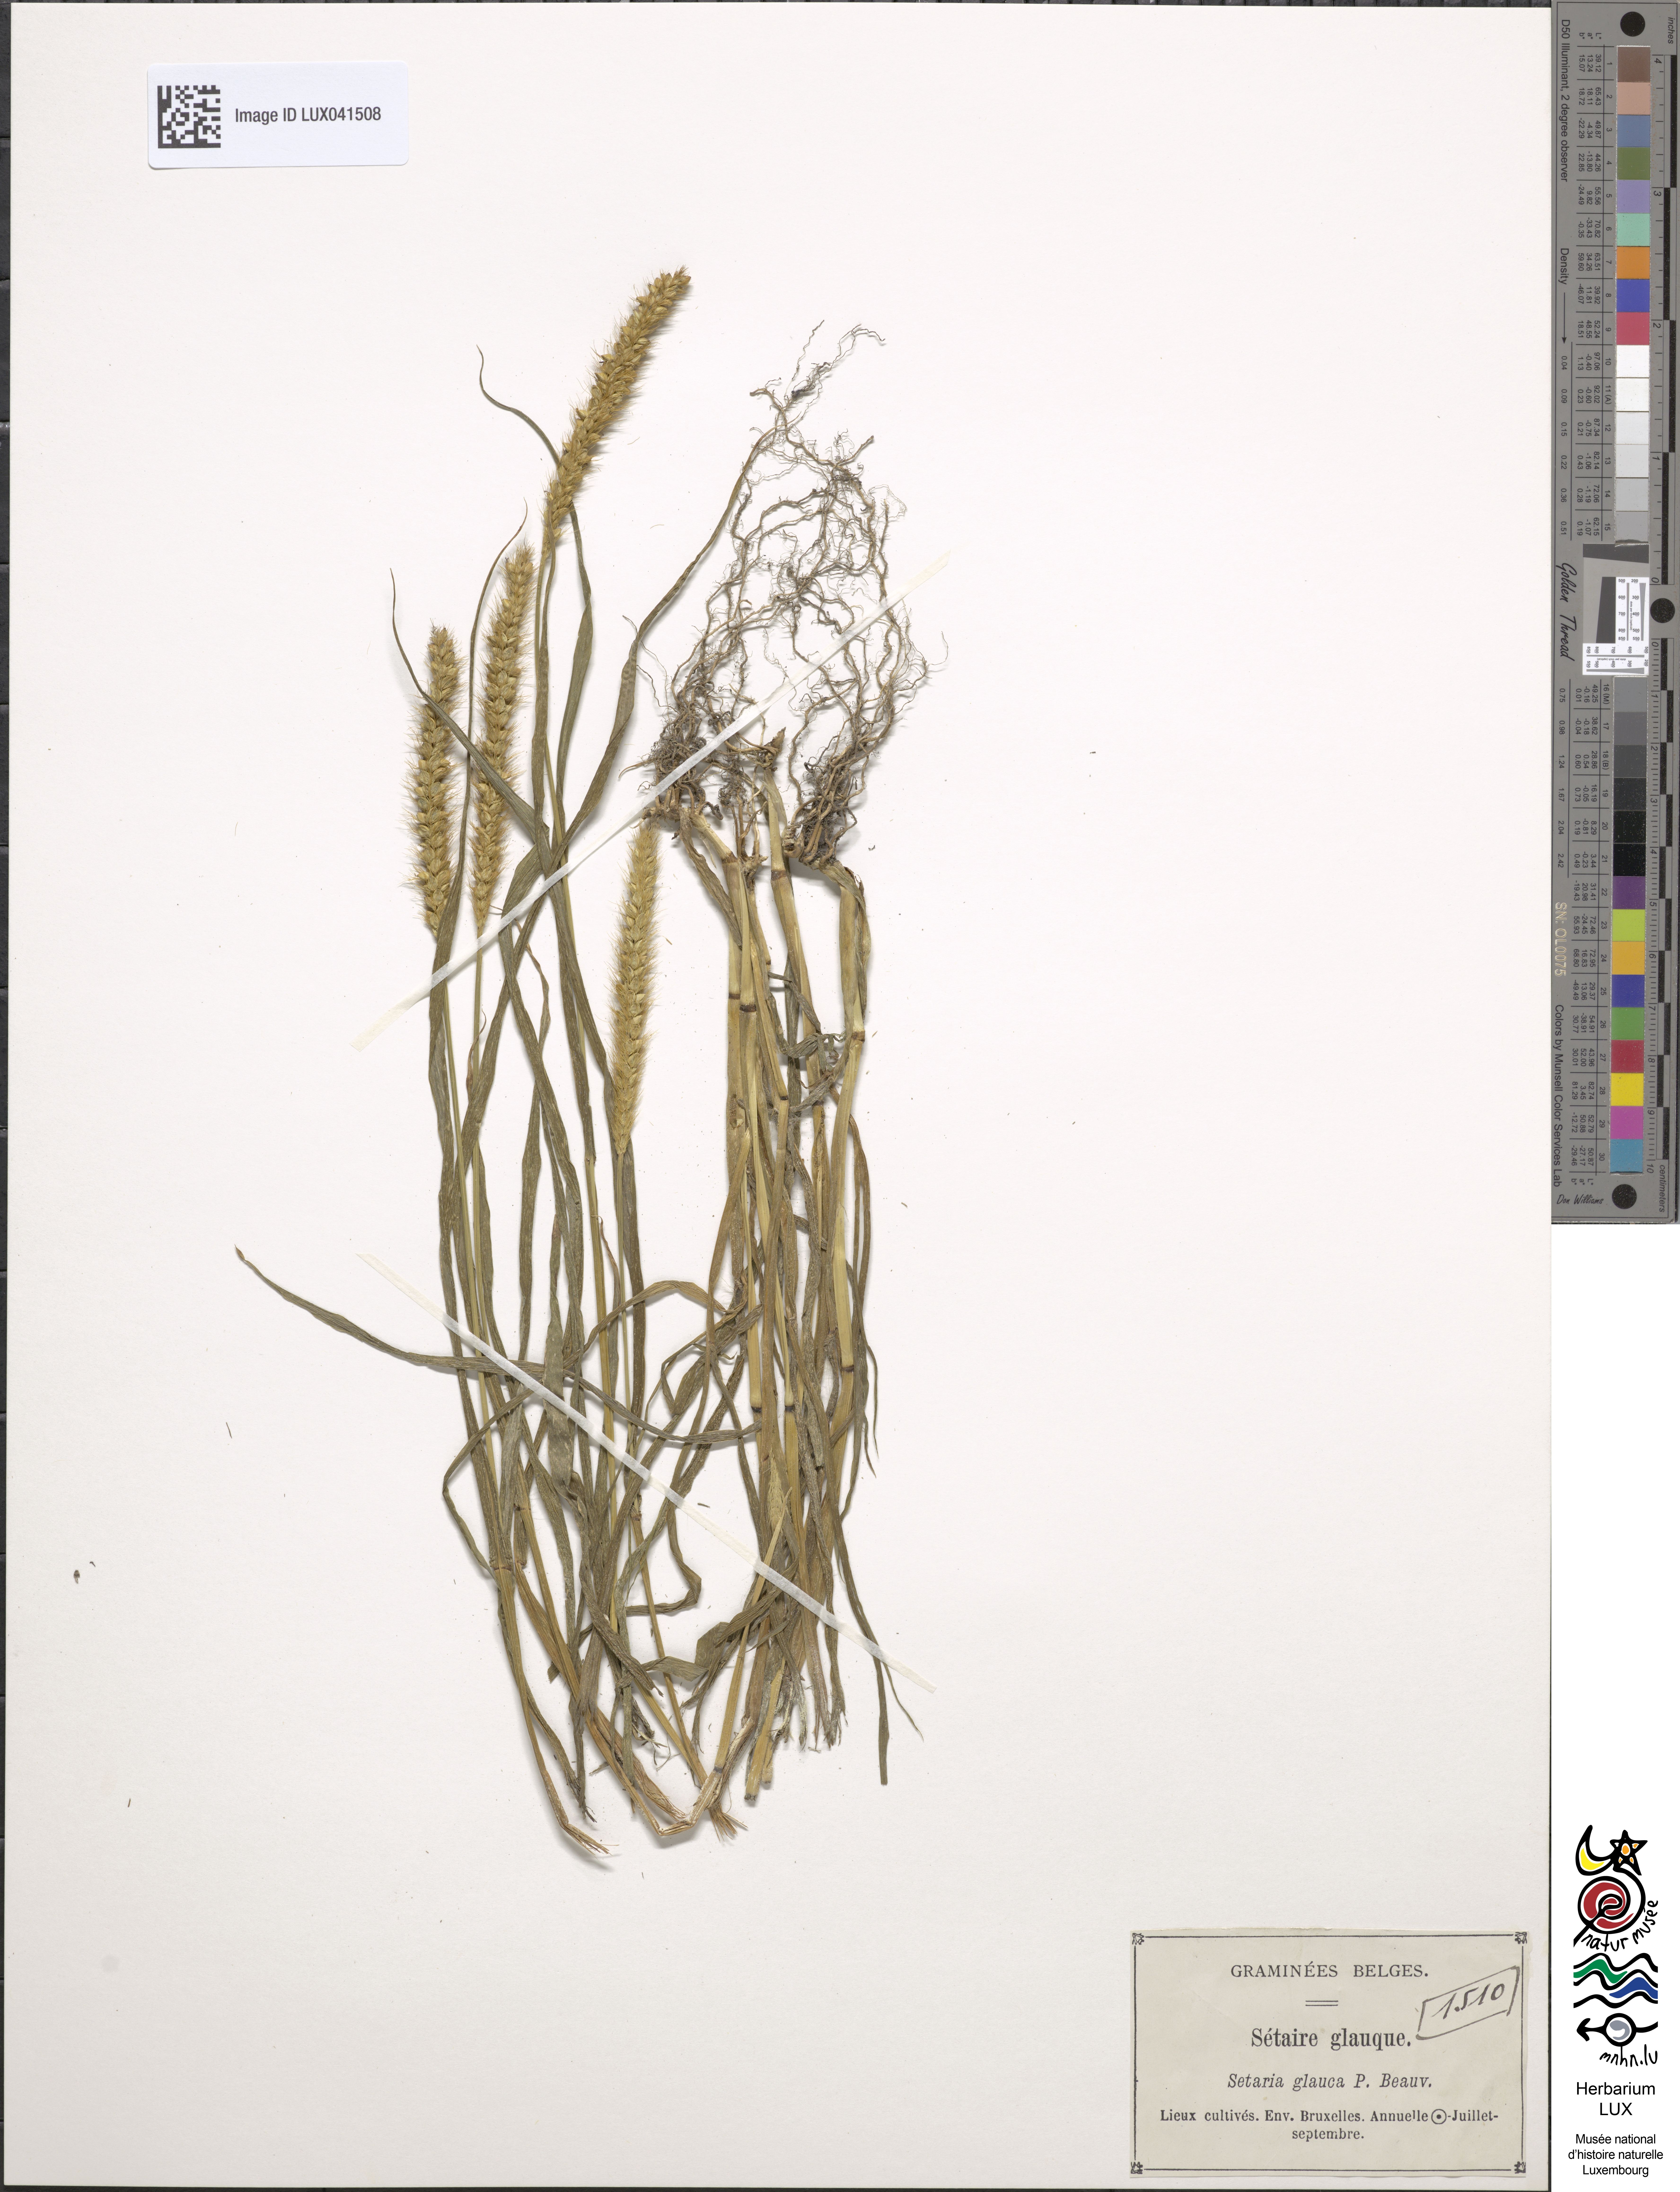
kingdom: Plantae
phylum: Tracheophyta
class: Liliopsida
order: Poales
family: Poaceae
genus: Cenchrus
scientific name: Cenchrus americanus
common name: Pearl millet
